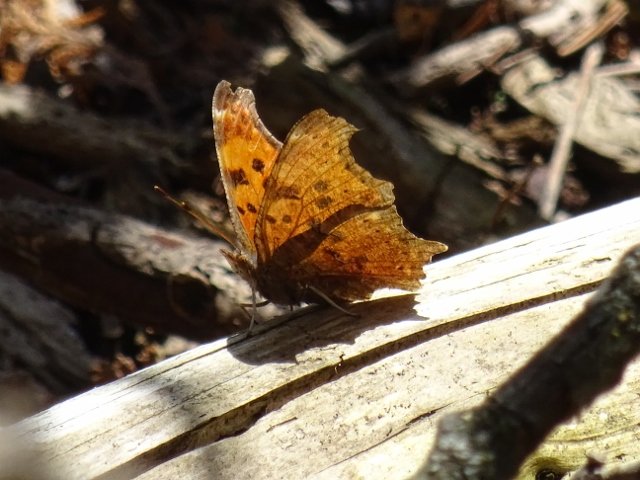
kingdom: Animalia
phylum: Arthropoda
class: Insecta
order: Lepidoptera
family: Nymphalidae
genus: Polygonia
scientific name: Polygonia comma
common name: Eastern Comma
